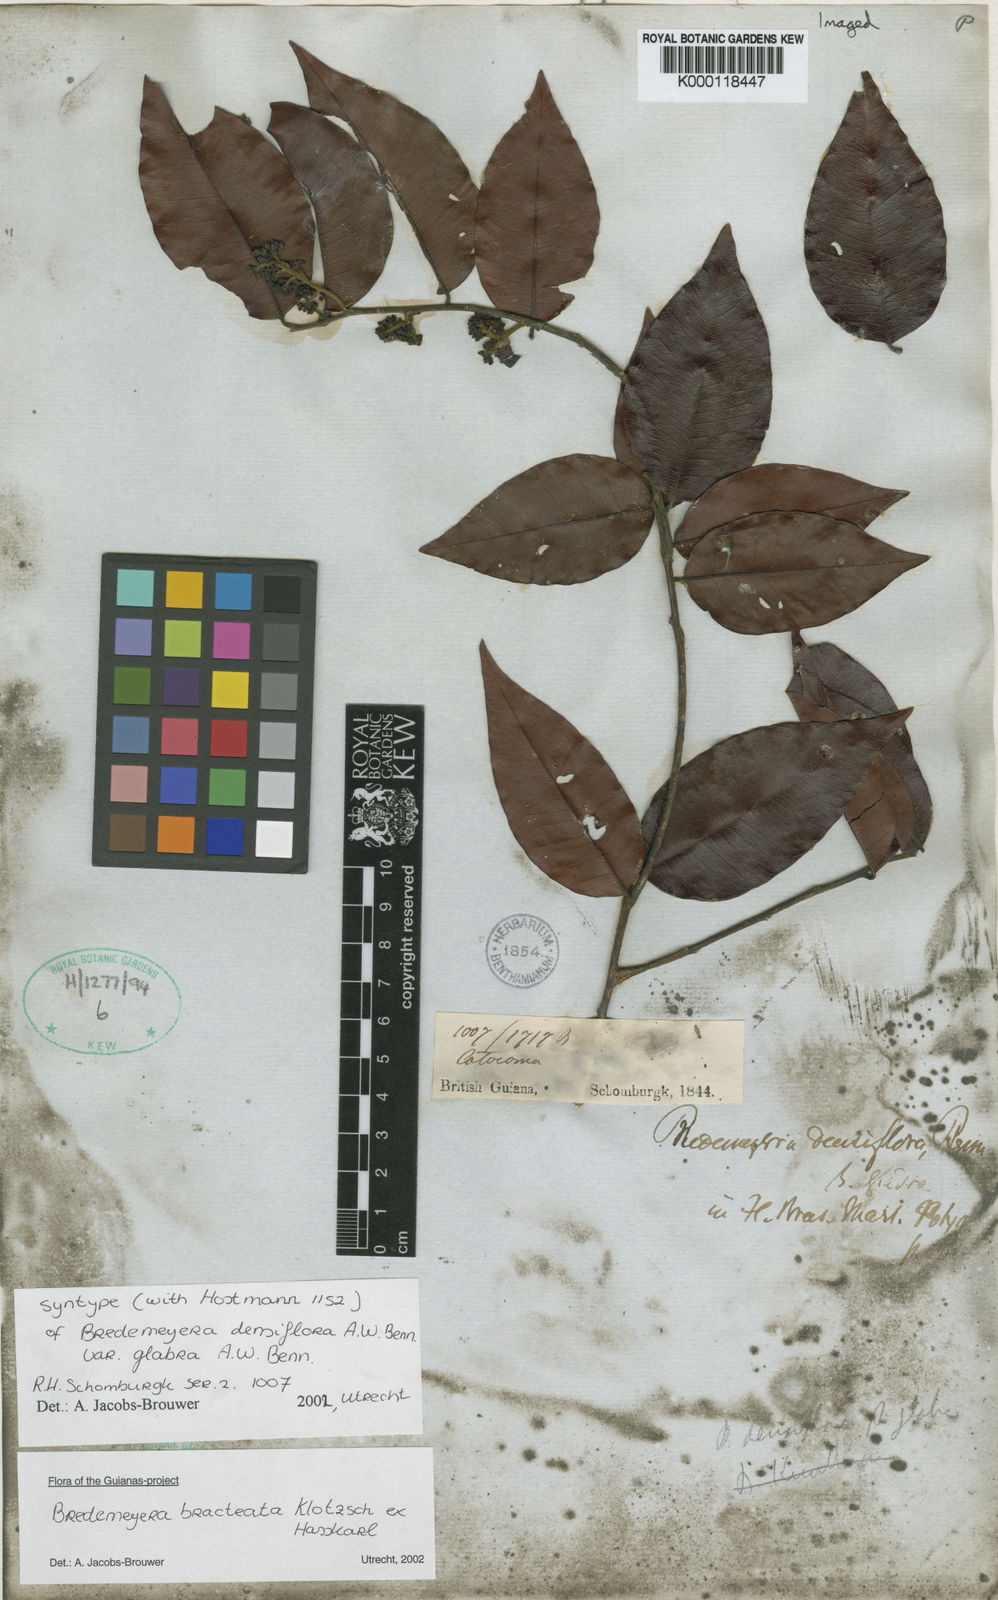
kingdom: Plantae
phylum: Tracheophyta
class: Magnoliopsida
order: Fabales
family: Polygalaceae
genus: Bredemeyera
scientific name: Bredemeyera bracteata
